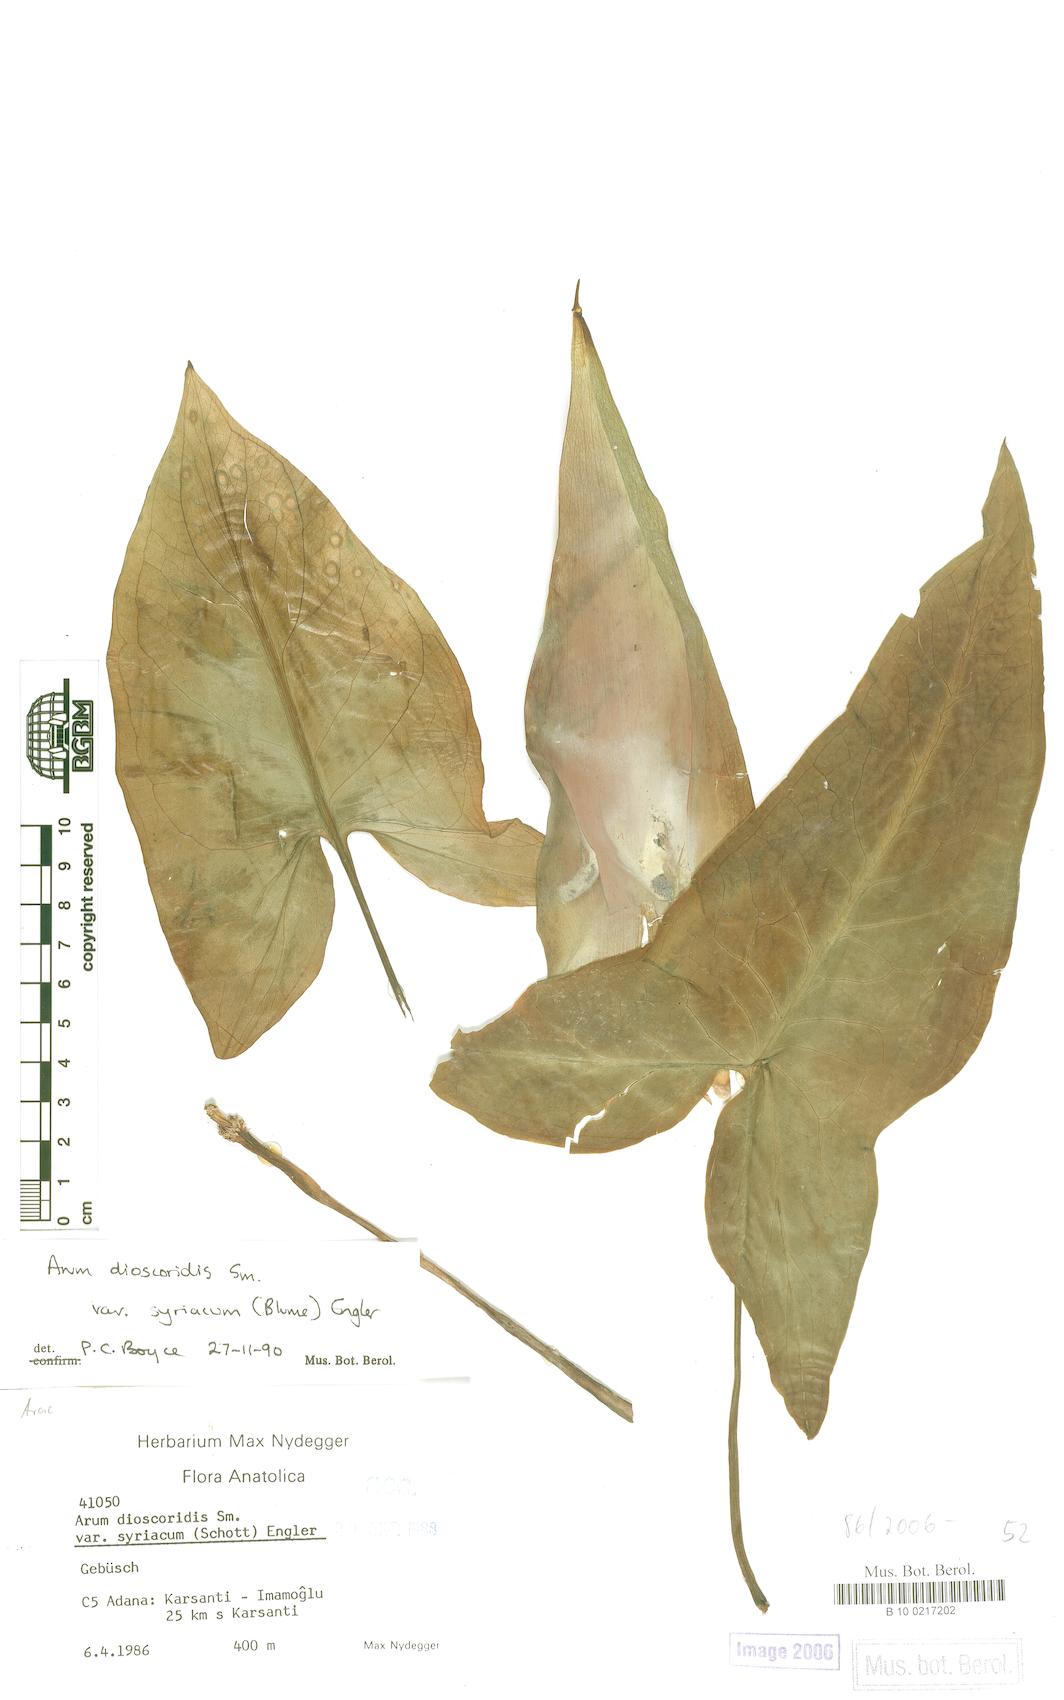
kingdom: Plantae
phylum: Tracheophyta
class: Liliopsida
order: Alismatales
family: Araceae
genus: Arum
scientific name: Arum dioscoridis
